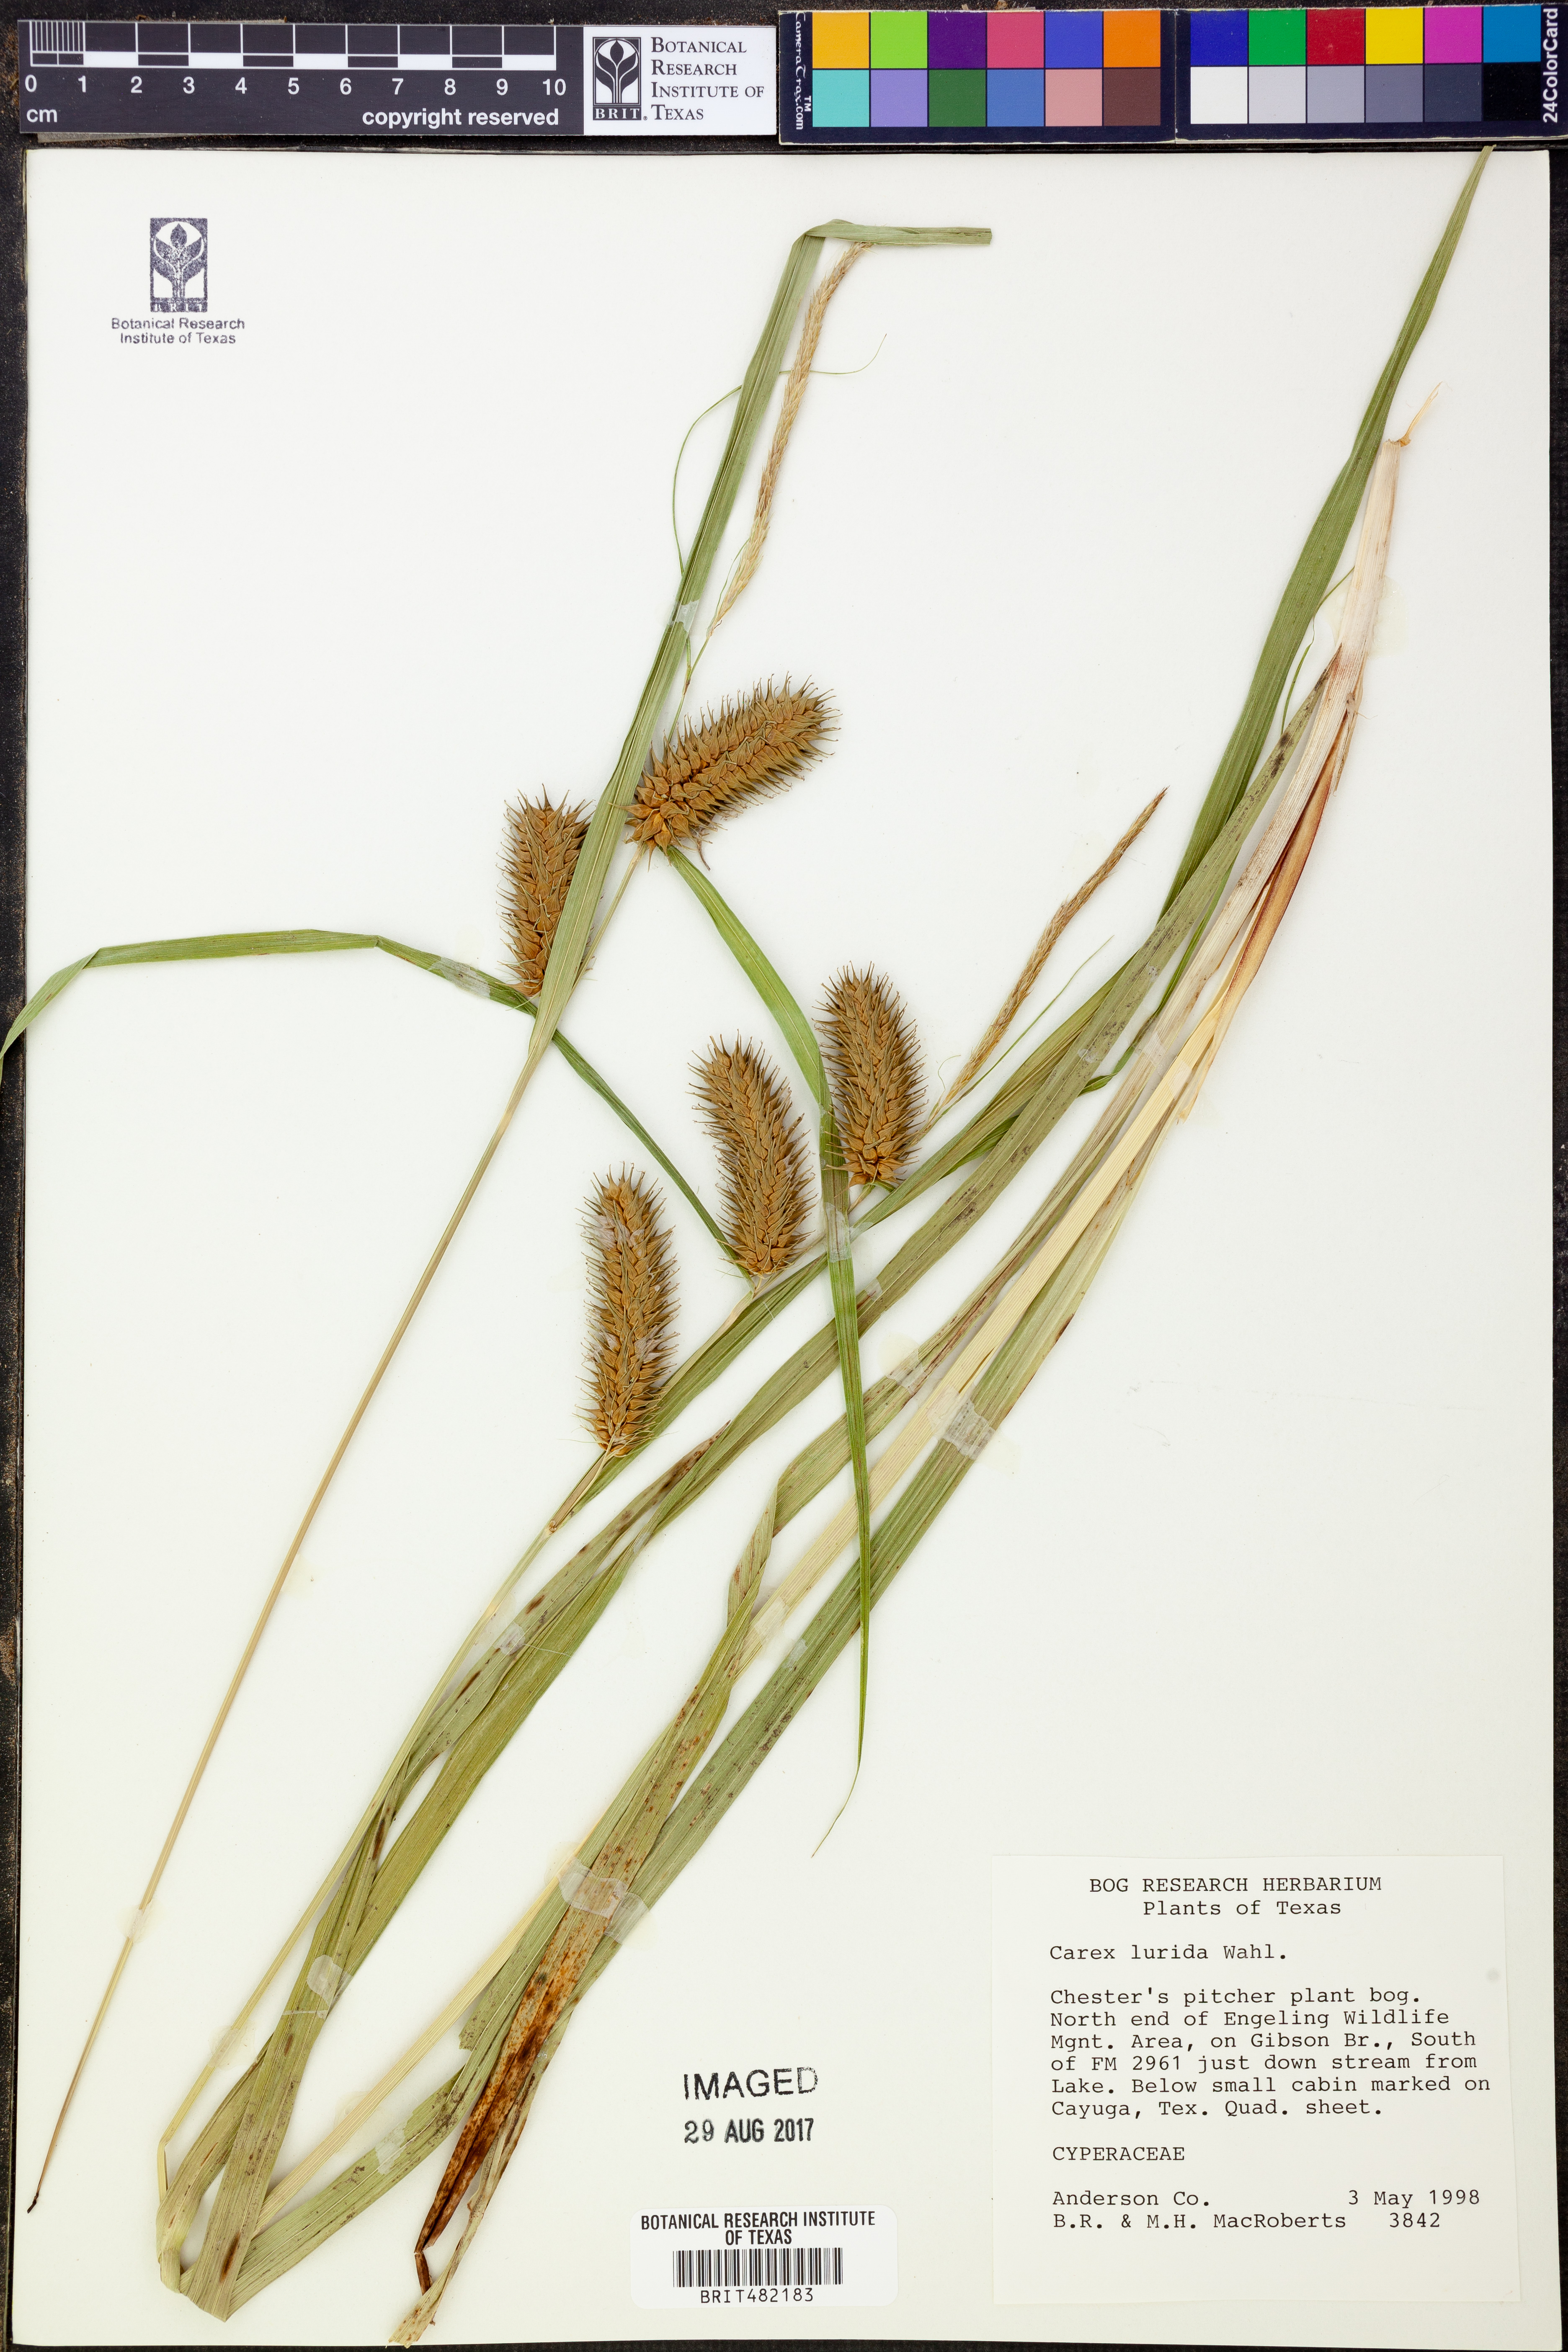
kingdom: Plantae
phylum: Tracheophyta
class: Liliopsida
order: Poales
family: Cyperaceae
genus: Carex
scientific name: Carex lurida
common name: Sallow sedge
